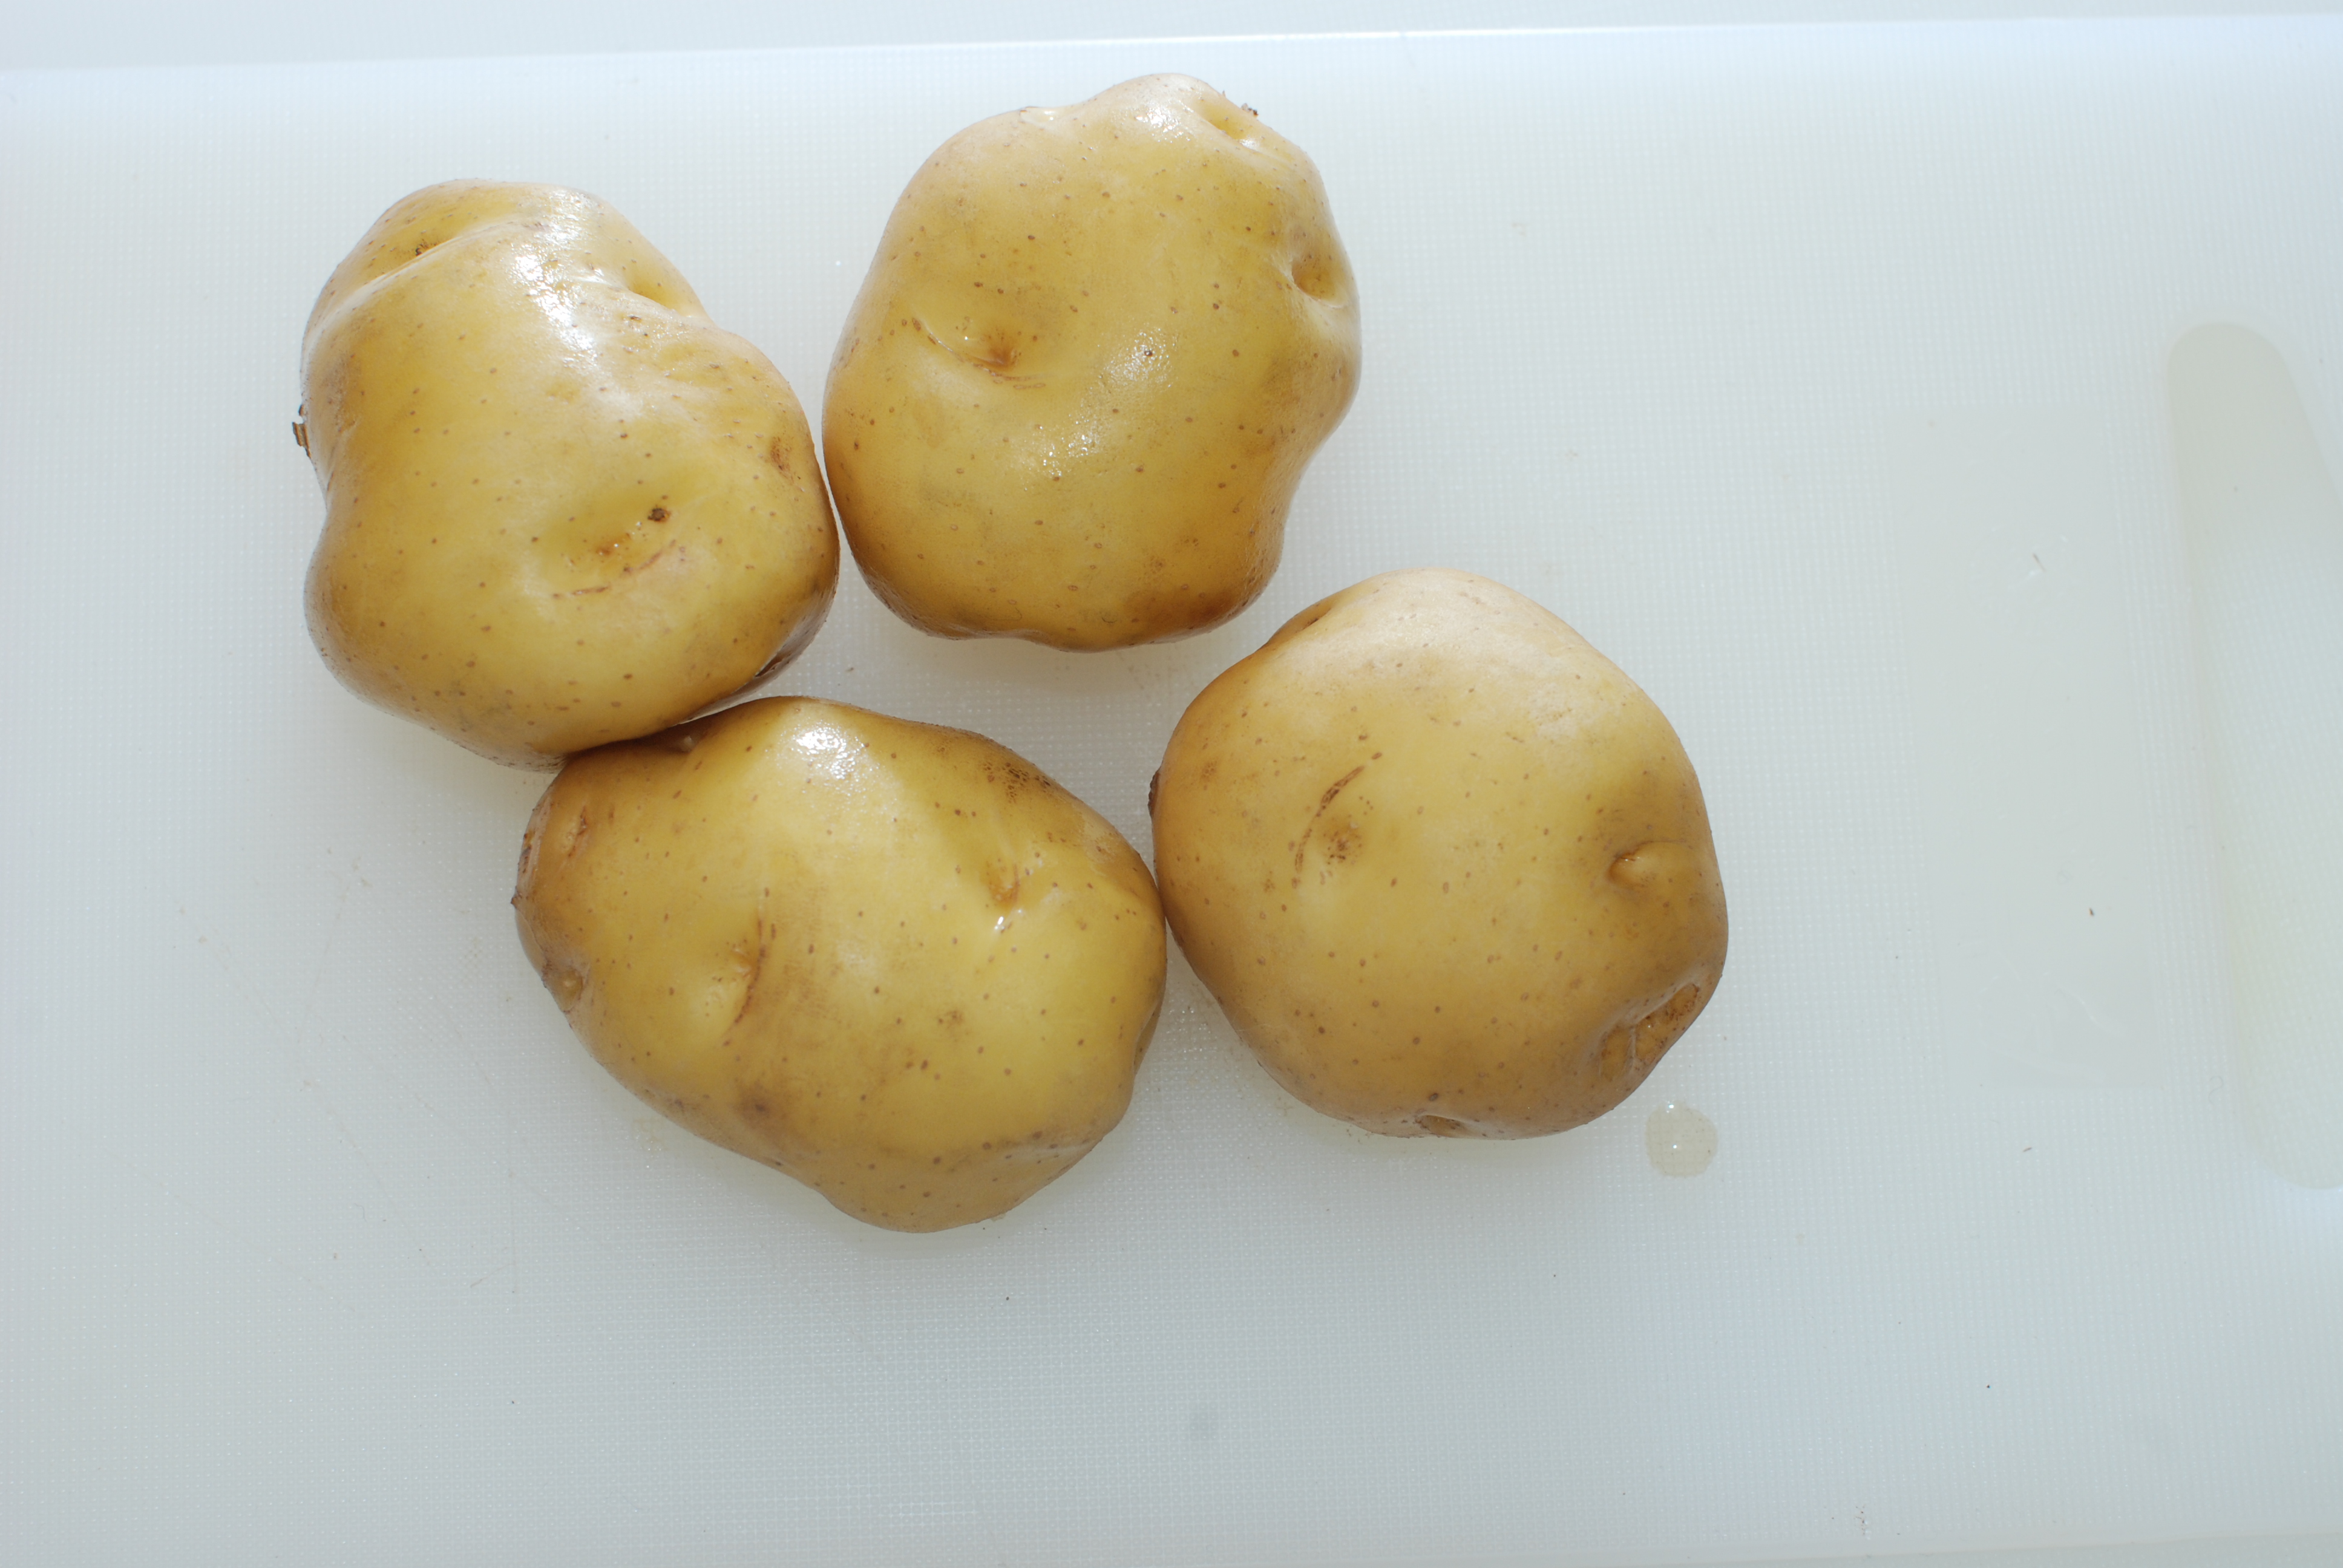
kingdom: Plantae
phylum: Tracheophyta
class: Magnoliopsida
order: Solanales
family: Solanaceae
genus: Solanum
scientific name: Solanum tuberosum
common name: Potato
